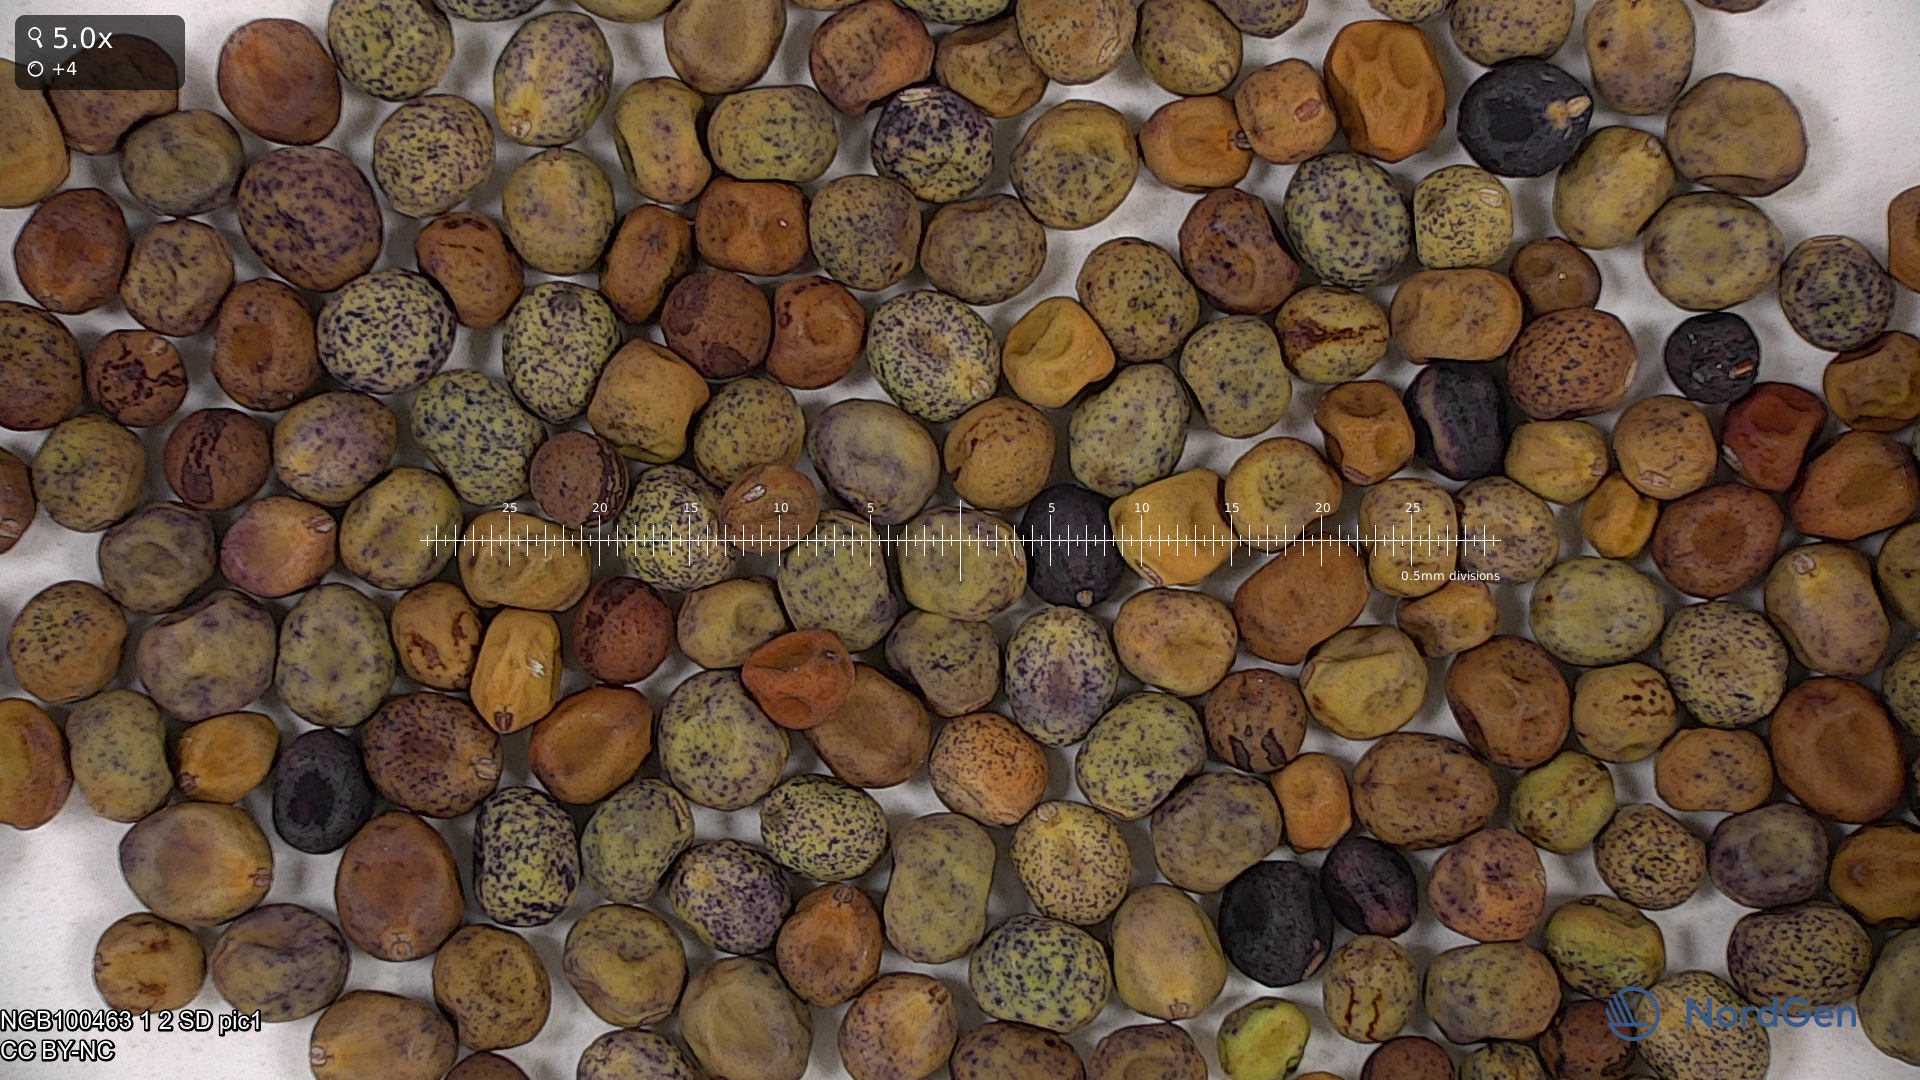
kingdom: Plantae
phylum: Tracheophyta
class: Magnoliopsida
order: Fabales
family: Fabaceae
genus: Lathyrus
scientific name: Lathyrus oleraceus
